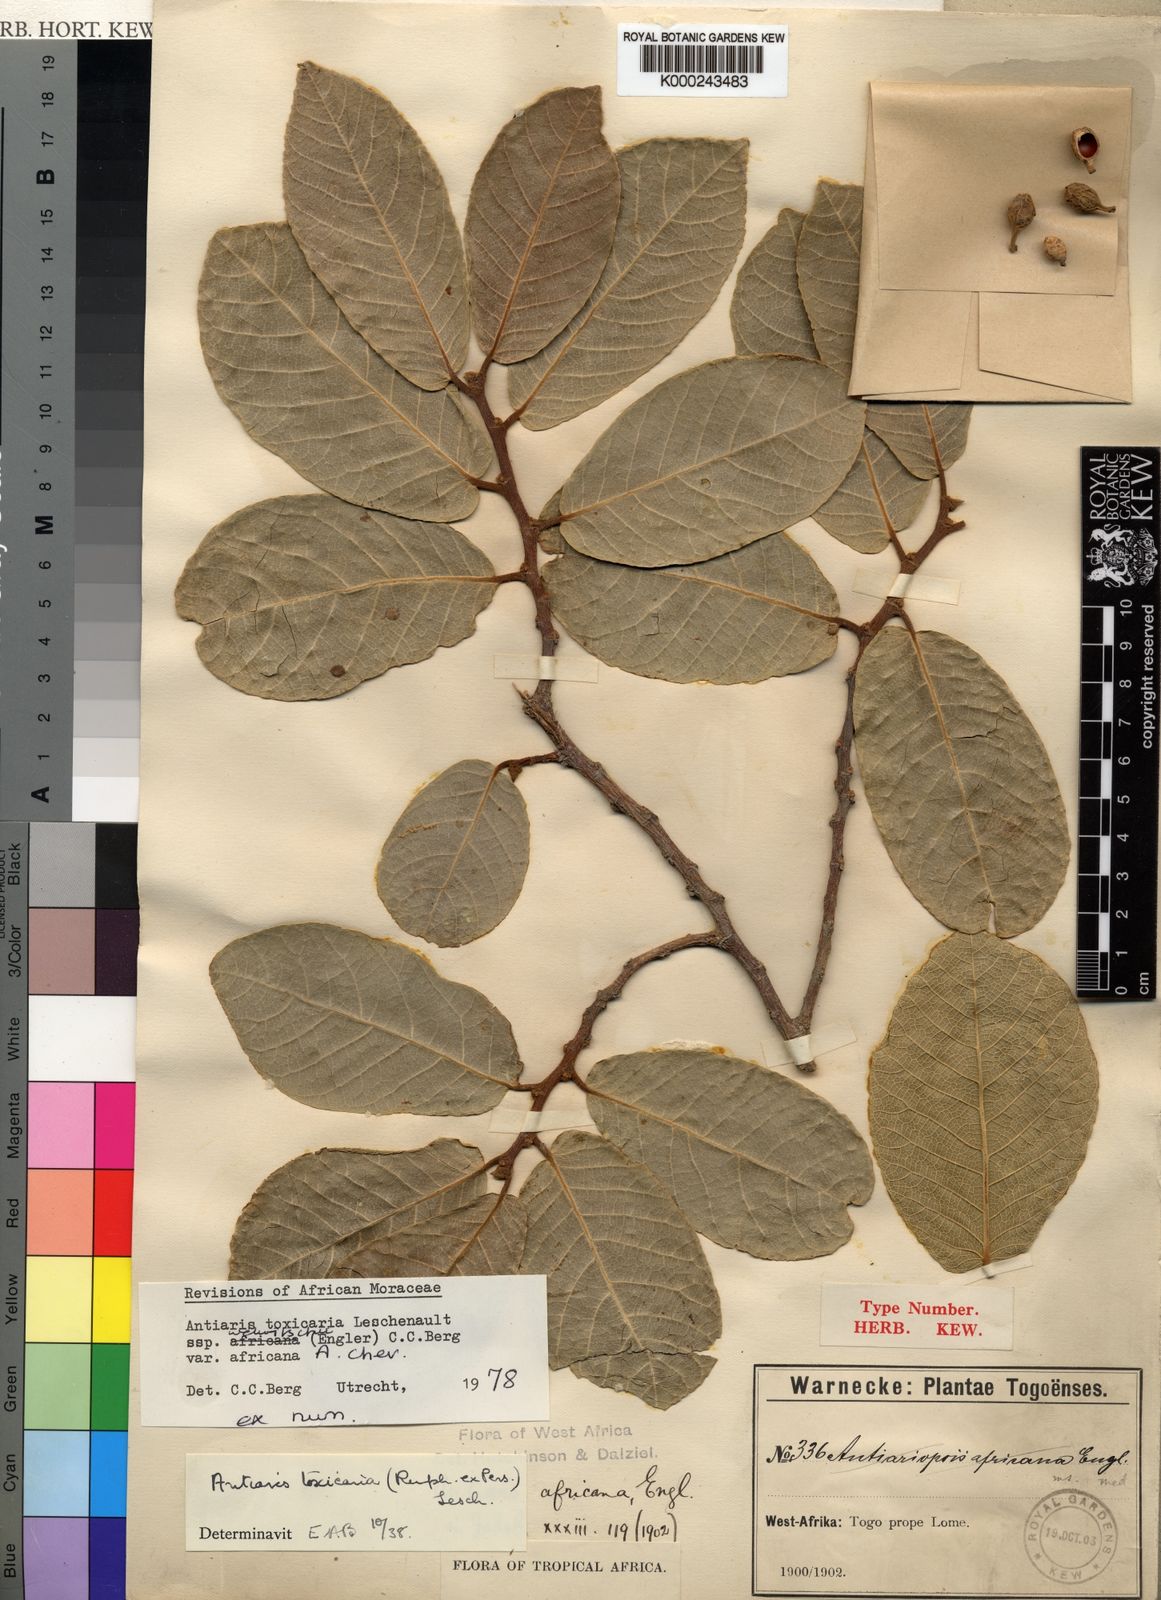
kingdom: Plantae
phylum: Tracheophyta
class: Magnoliopsida
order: Rosales
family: Moraceae
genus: Antiaris
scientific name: Antiaris toxicaria
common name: Sackingtree
